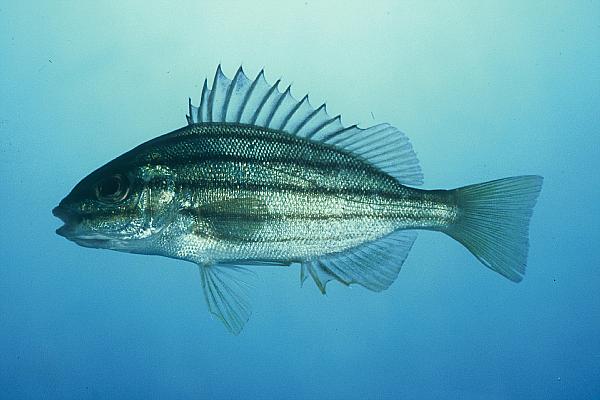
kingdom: Animalia
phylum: Chordata
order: Perciformes
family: Terapontidae
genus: Pelates
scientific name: Pelates quadrilineatus
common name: Fourlined terapon
